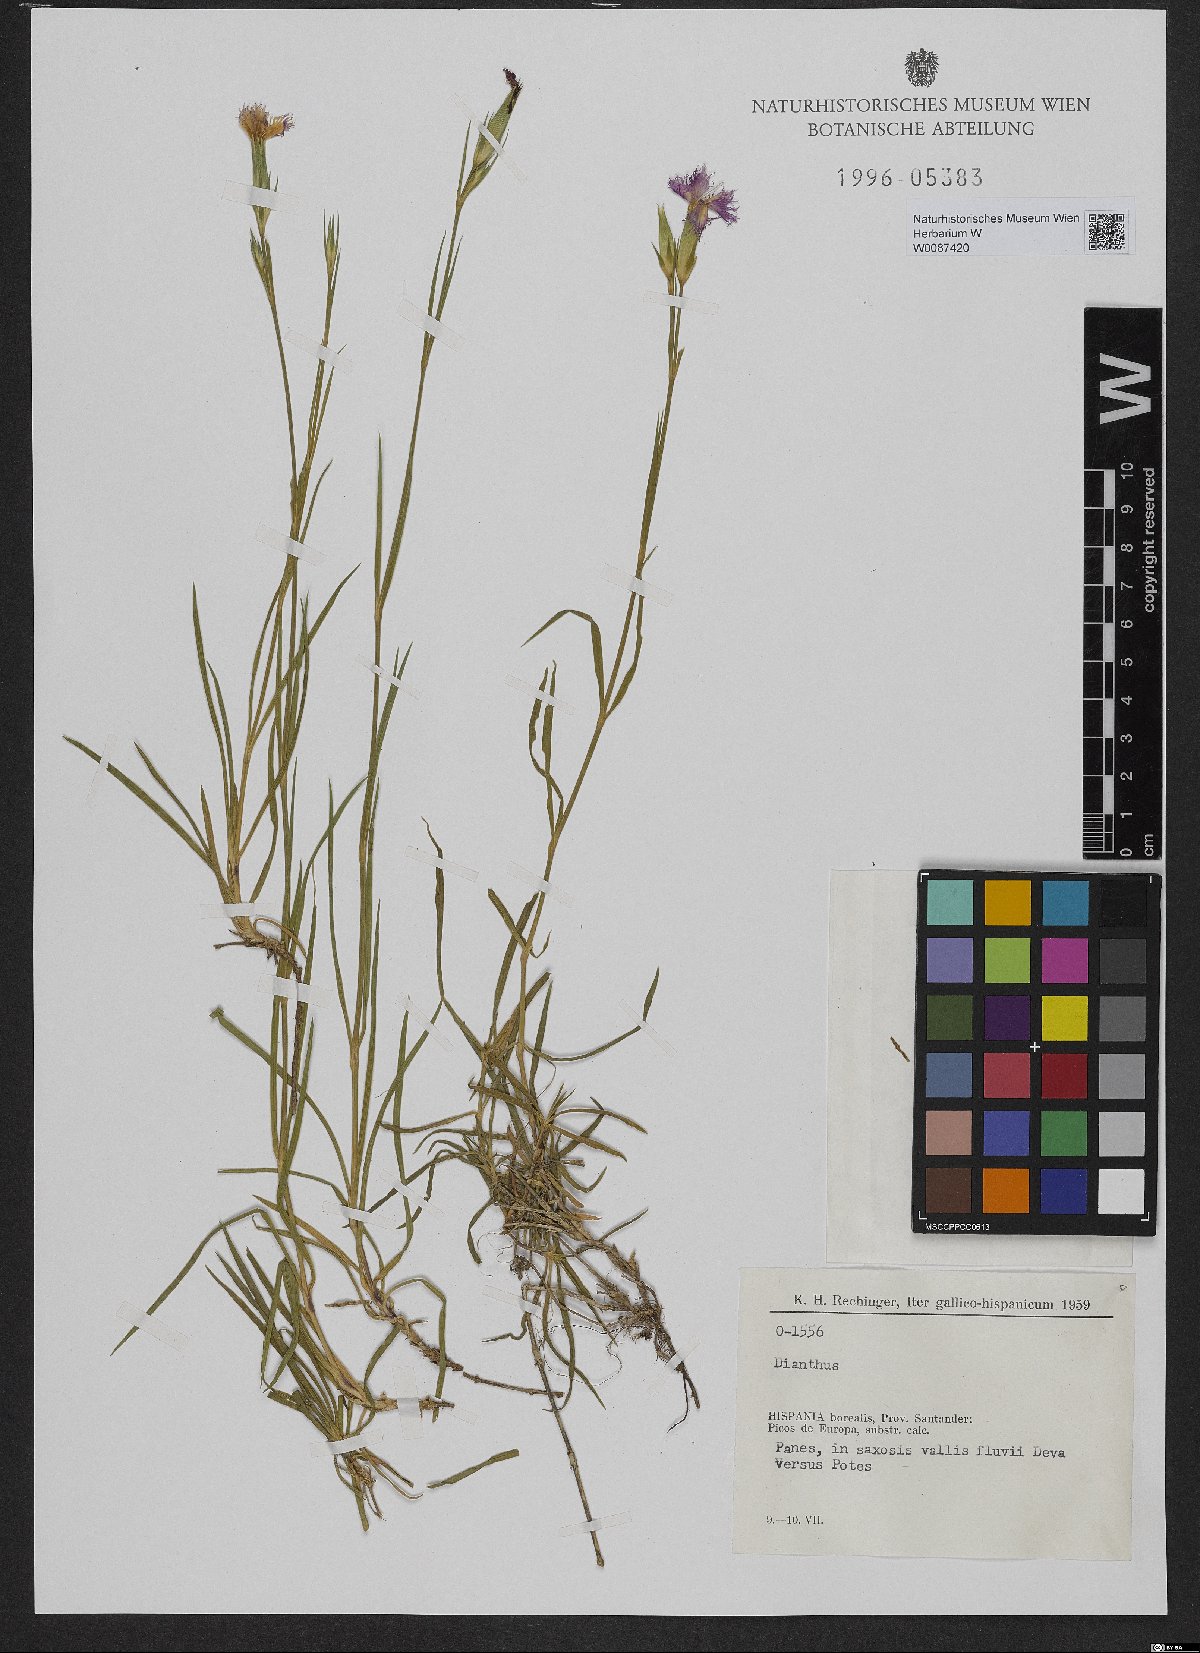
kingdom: Plantae
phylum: Tracheophyta
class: Magnoliopsida
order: Caryophyllales
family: Caryophyllaceae
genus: Dianthus
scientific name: Dianthus
